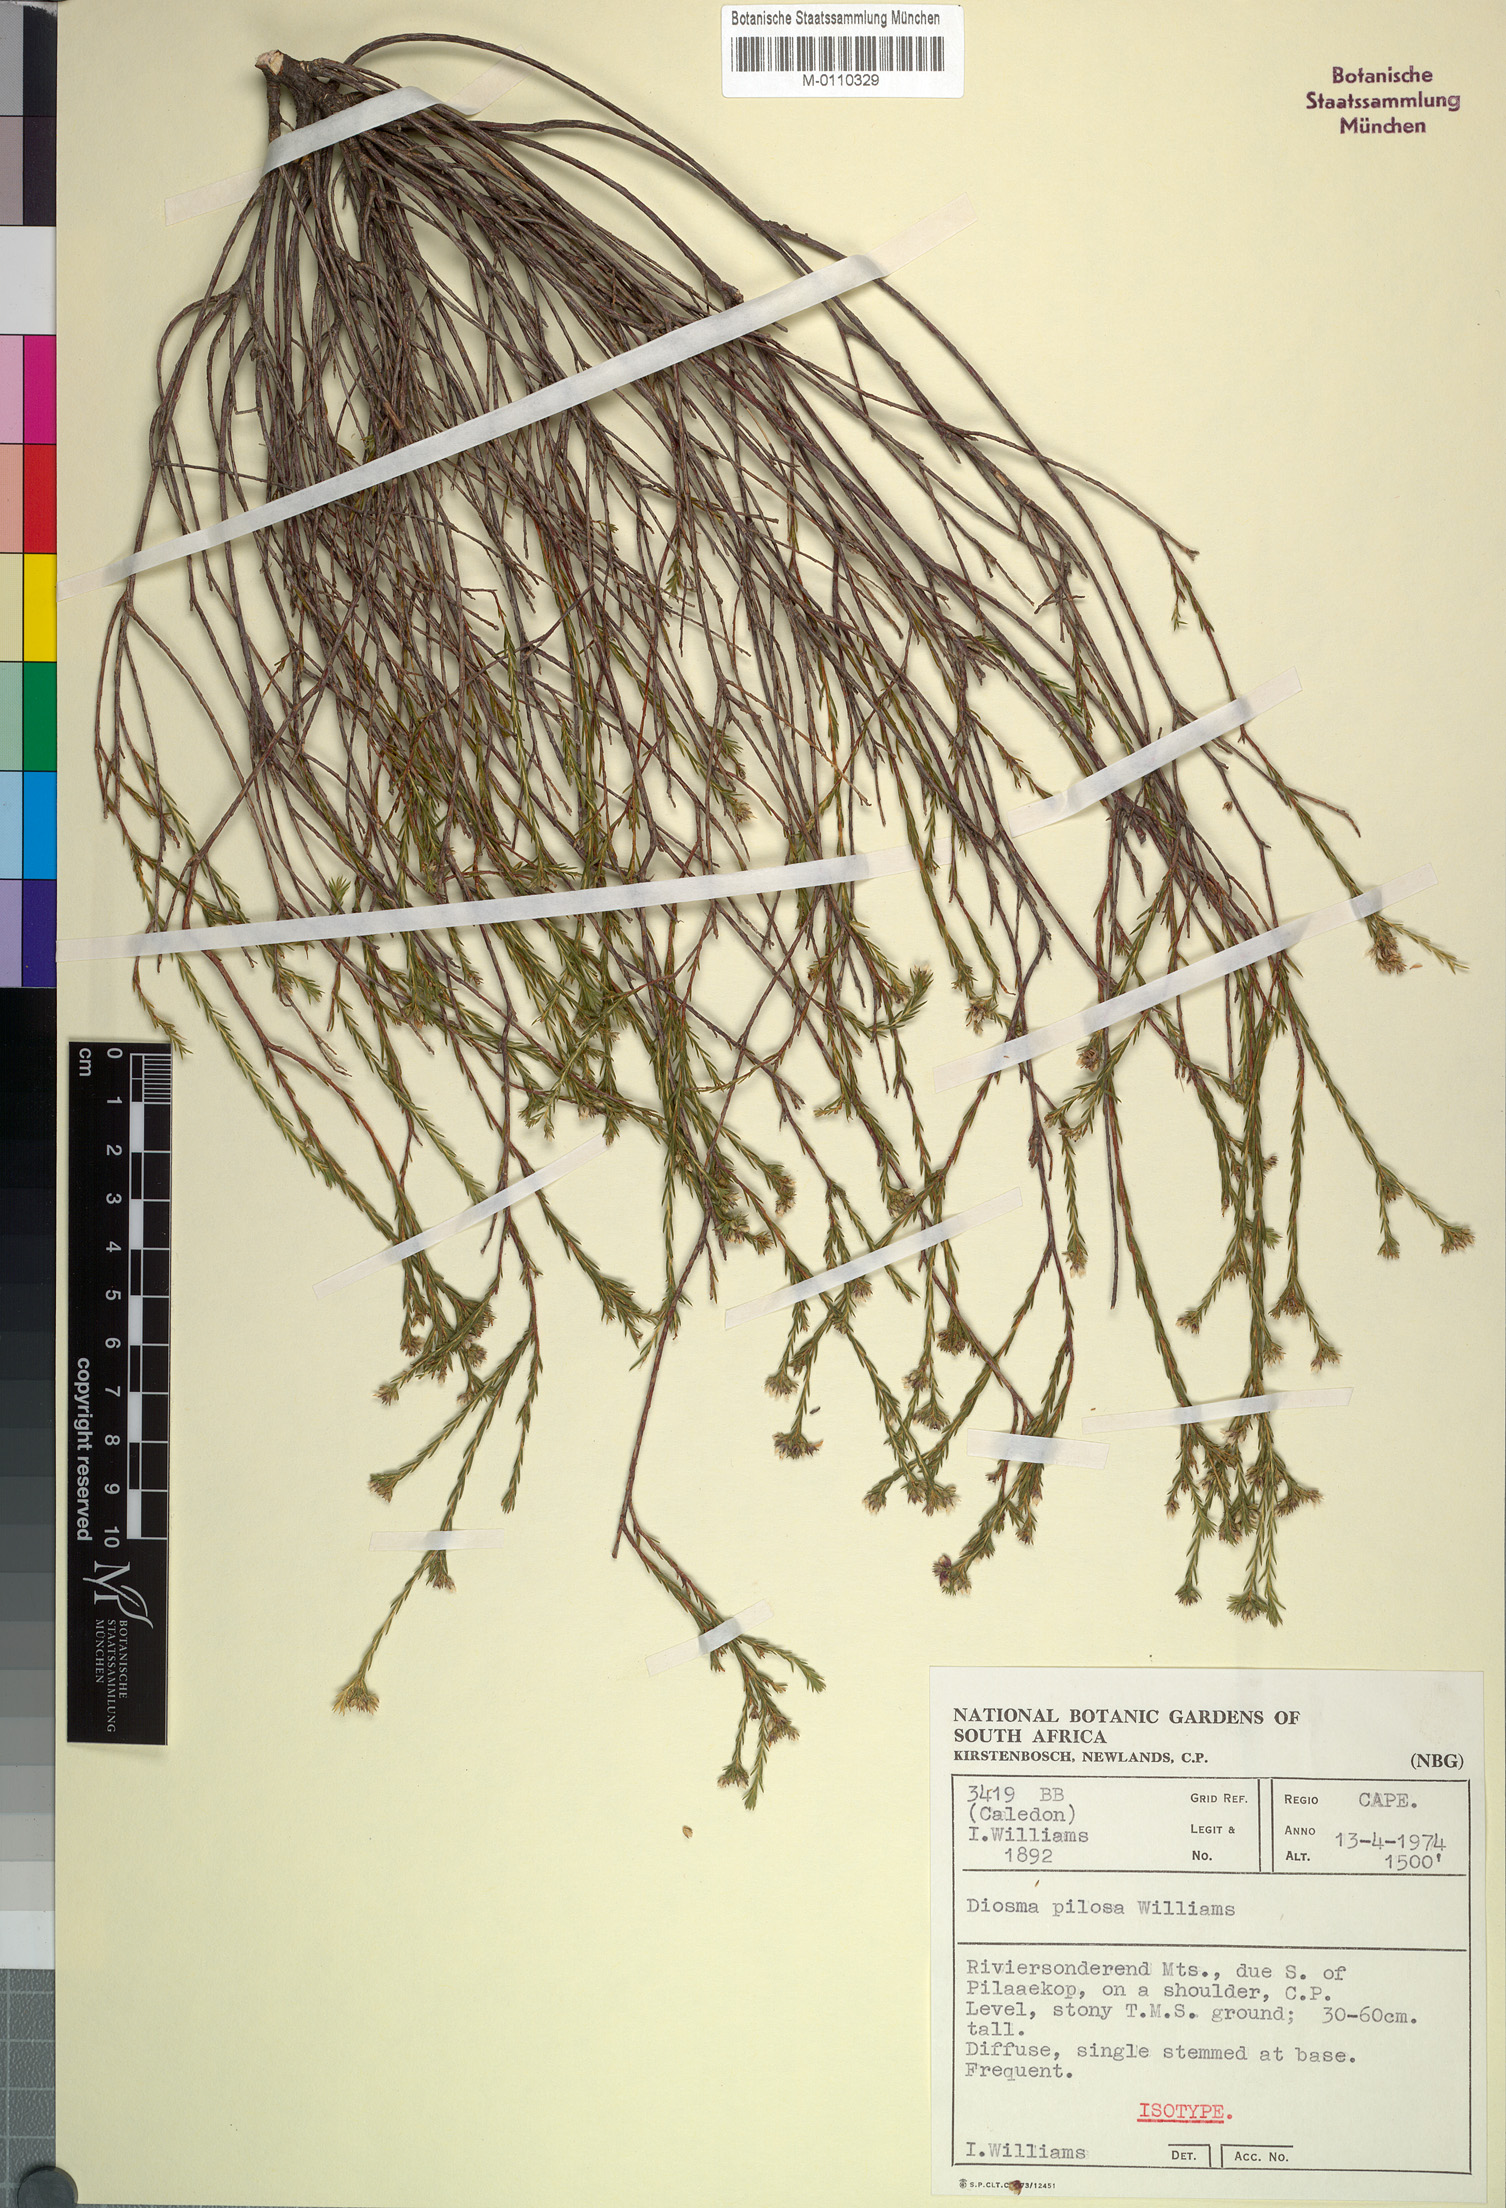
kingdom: Plantae
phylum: Tracheophyta
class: Magnoliopsida
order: Sapindales
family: Rutaceae
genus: Diosma
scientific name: Diosma pilosa
